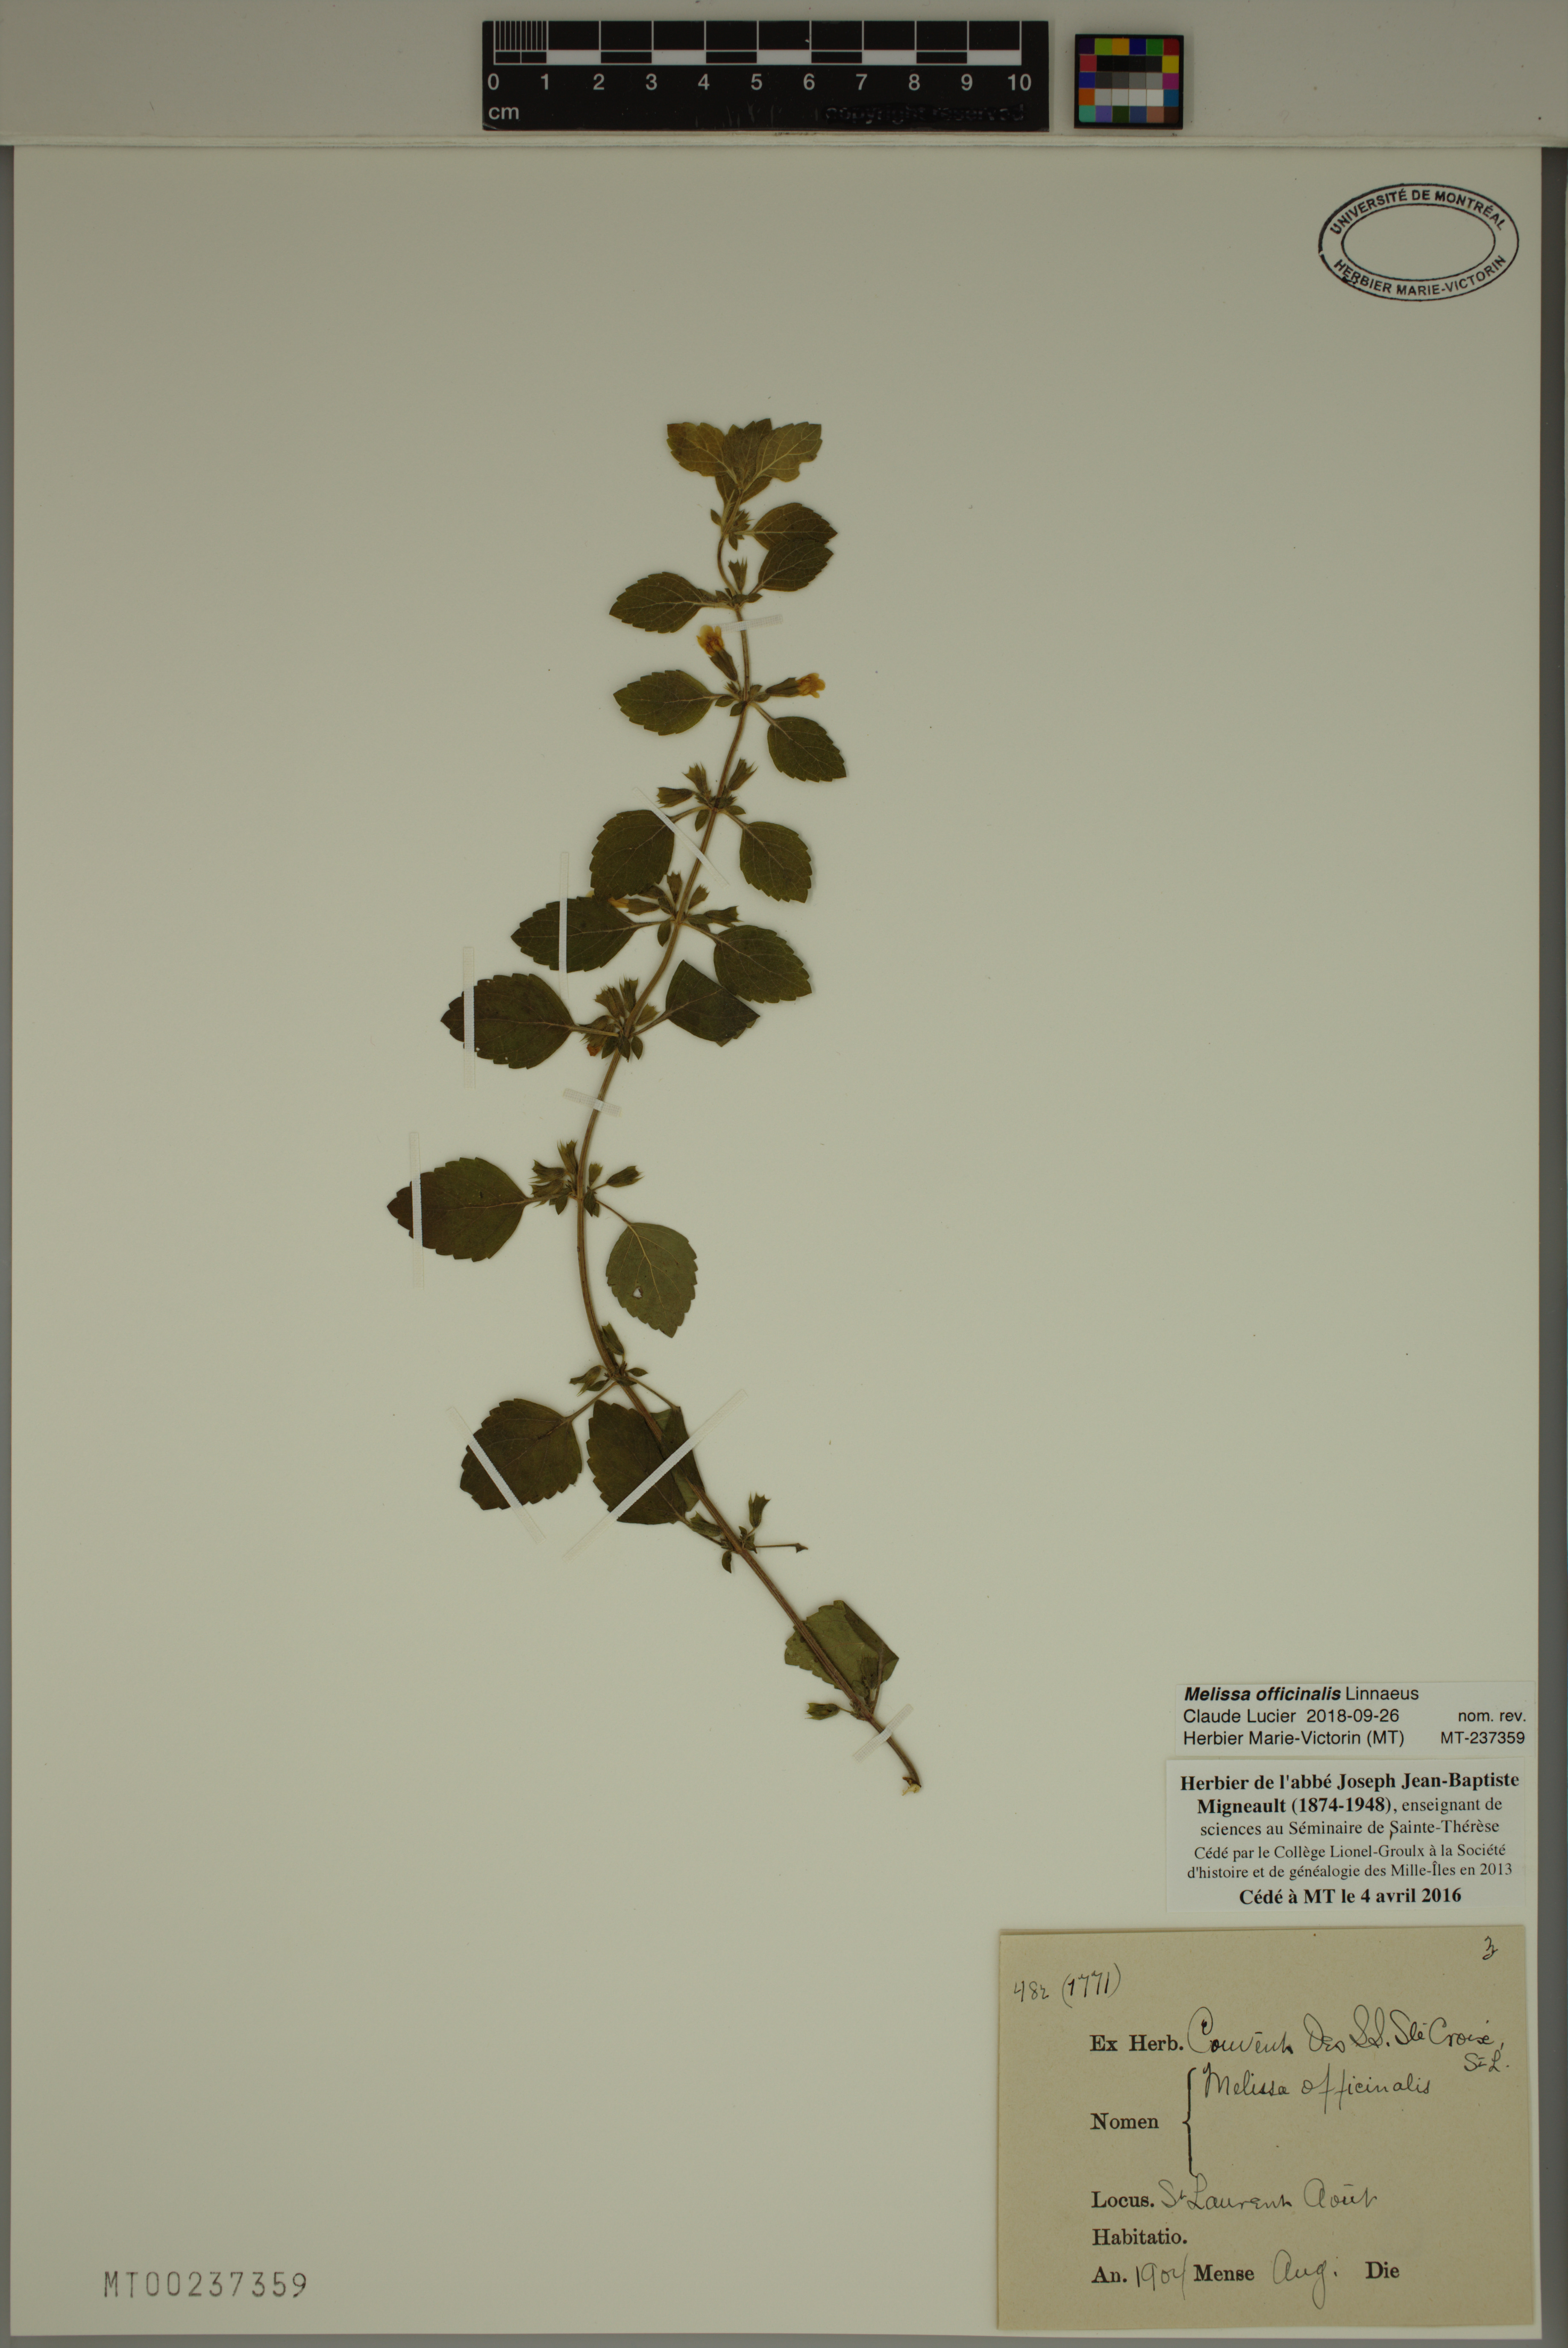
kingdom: Plantae
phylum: Tracheophyta
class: Magnoliopsida
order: Lamiales
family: Lamiaceae
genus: Melissa
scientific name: Melissa officinalis
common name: Balm
